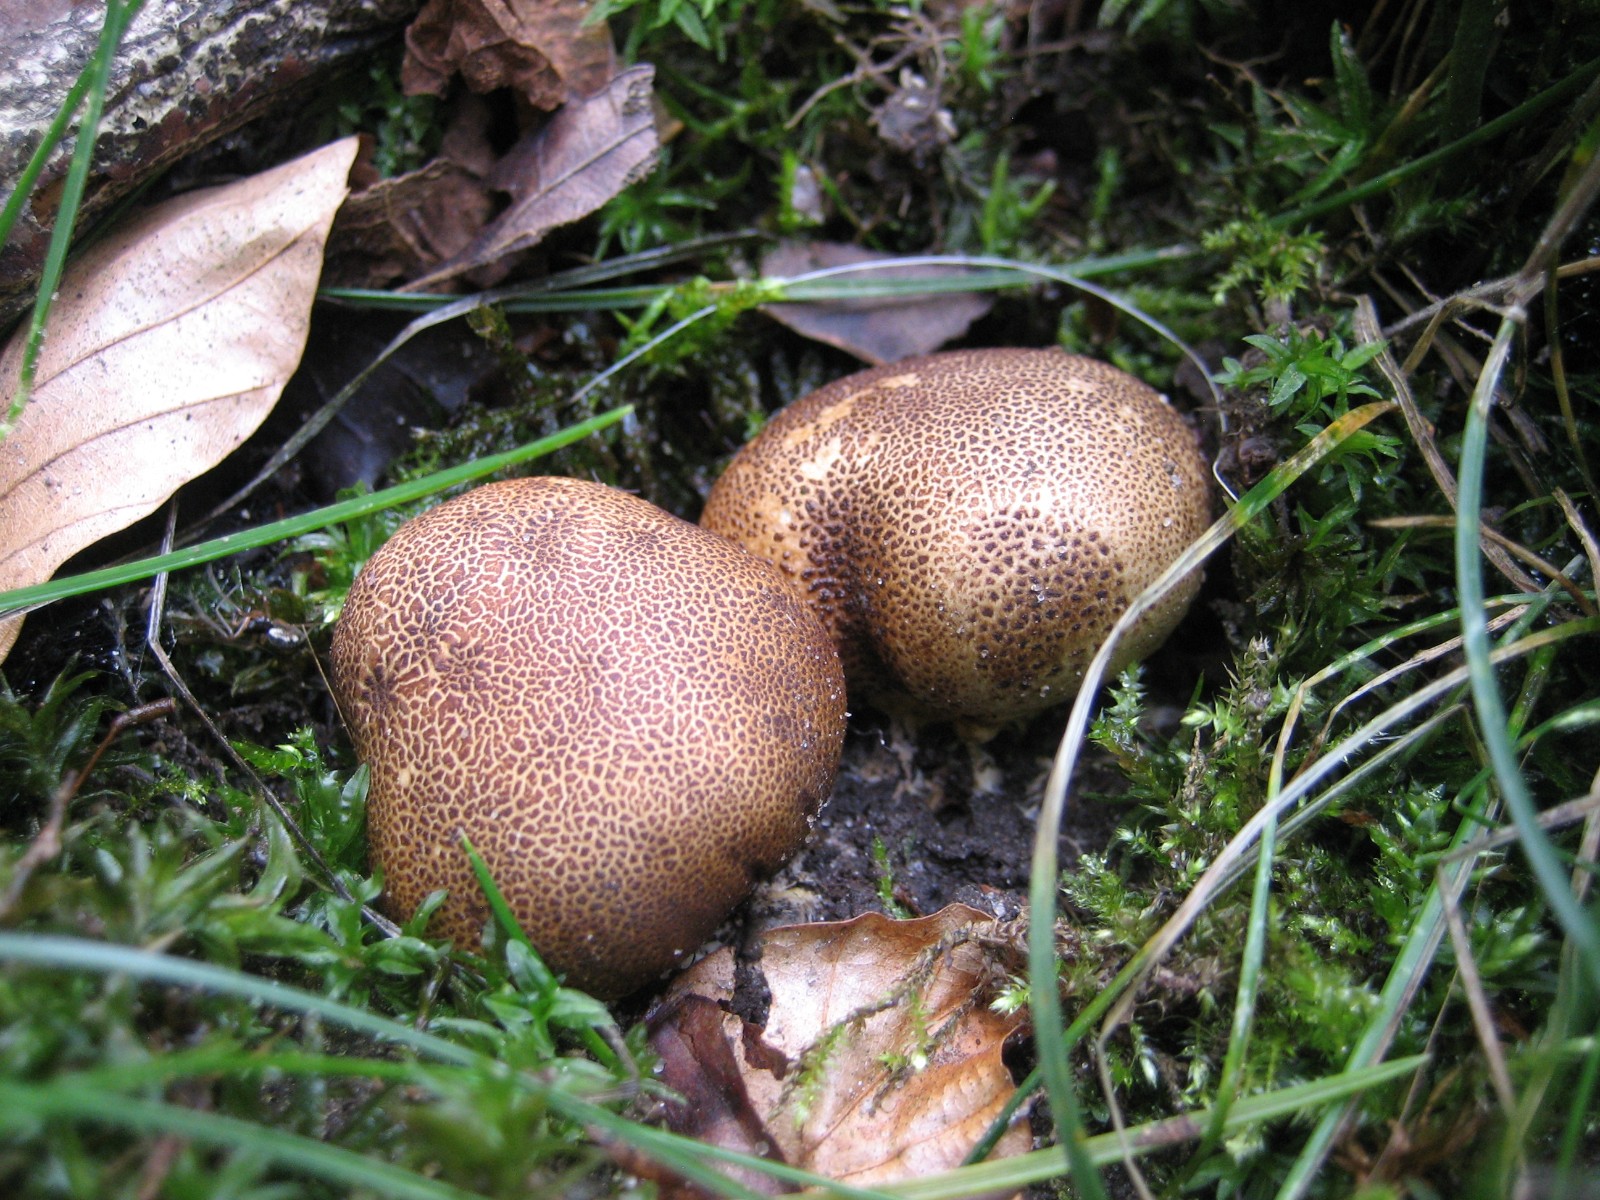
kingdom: Fungi
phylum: Basidiomycota
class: Agaricomycetes
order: Boletales
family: Sclerodermataceae
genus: Scleroderma
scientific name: Scleroderma
